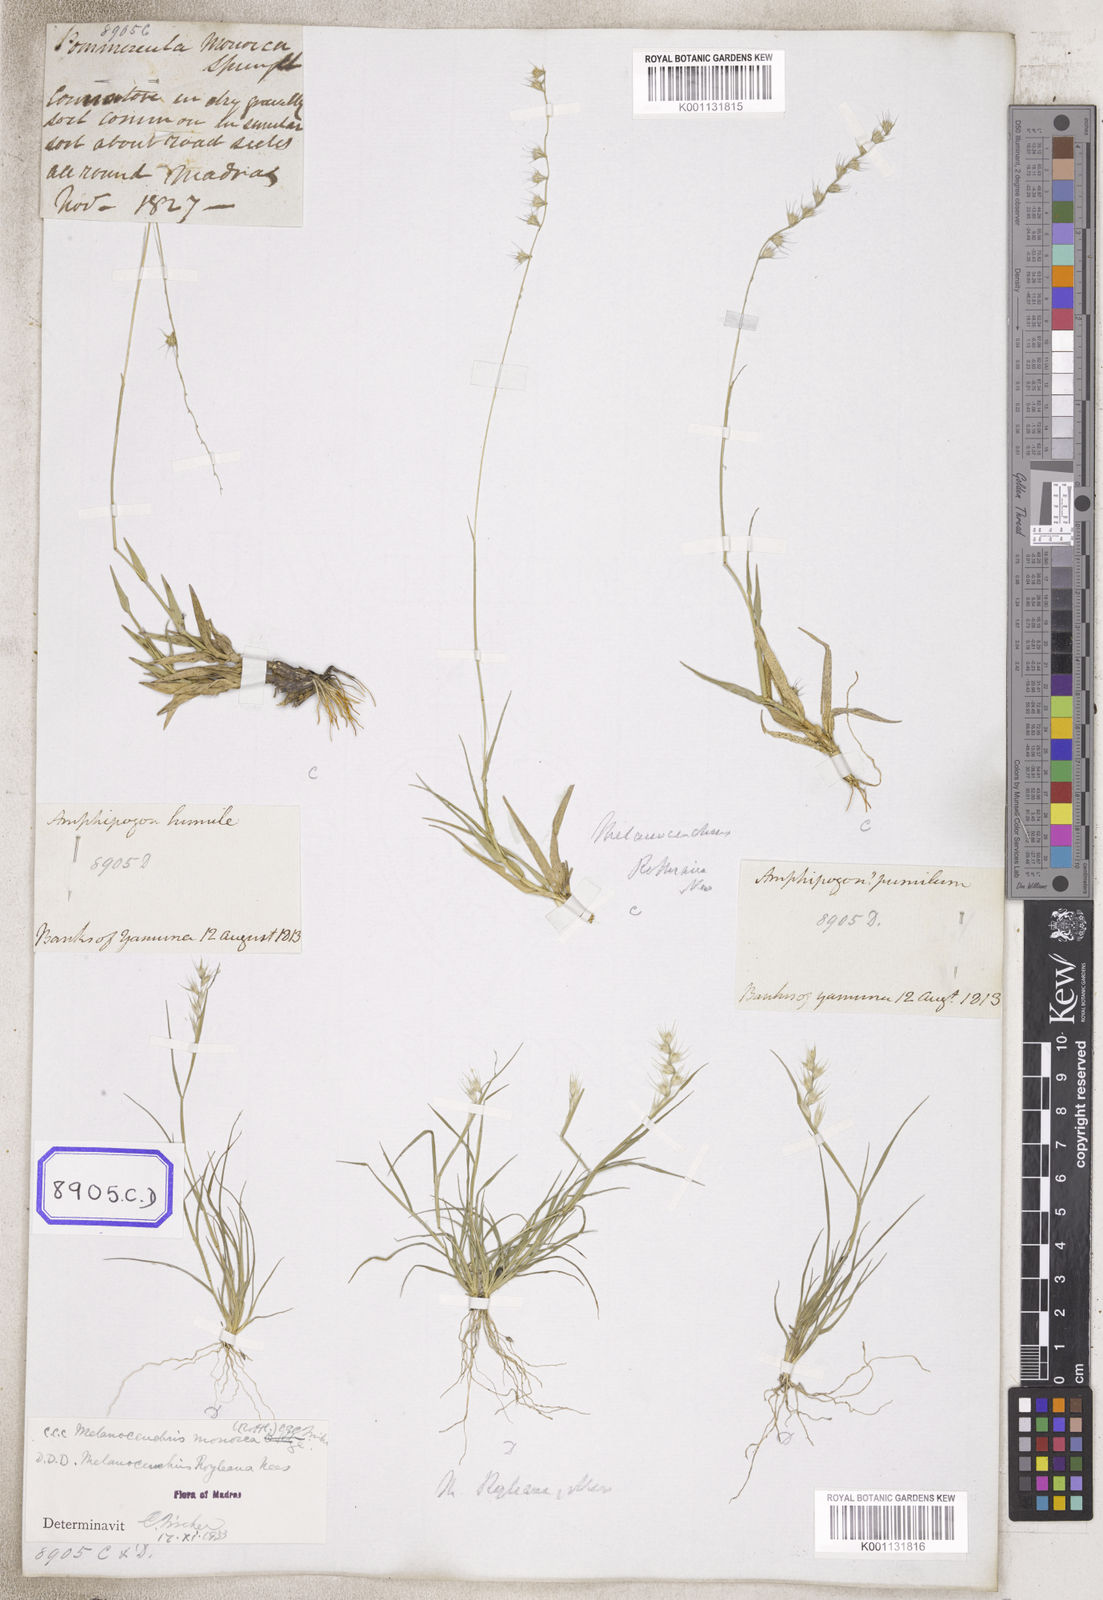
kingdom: Plantae
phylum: Tracheophyta
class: Liliopsida
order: Poales
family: Poaceae
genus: Melanocenchris
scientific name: Melanocenchris rothiana
